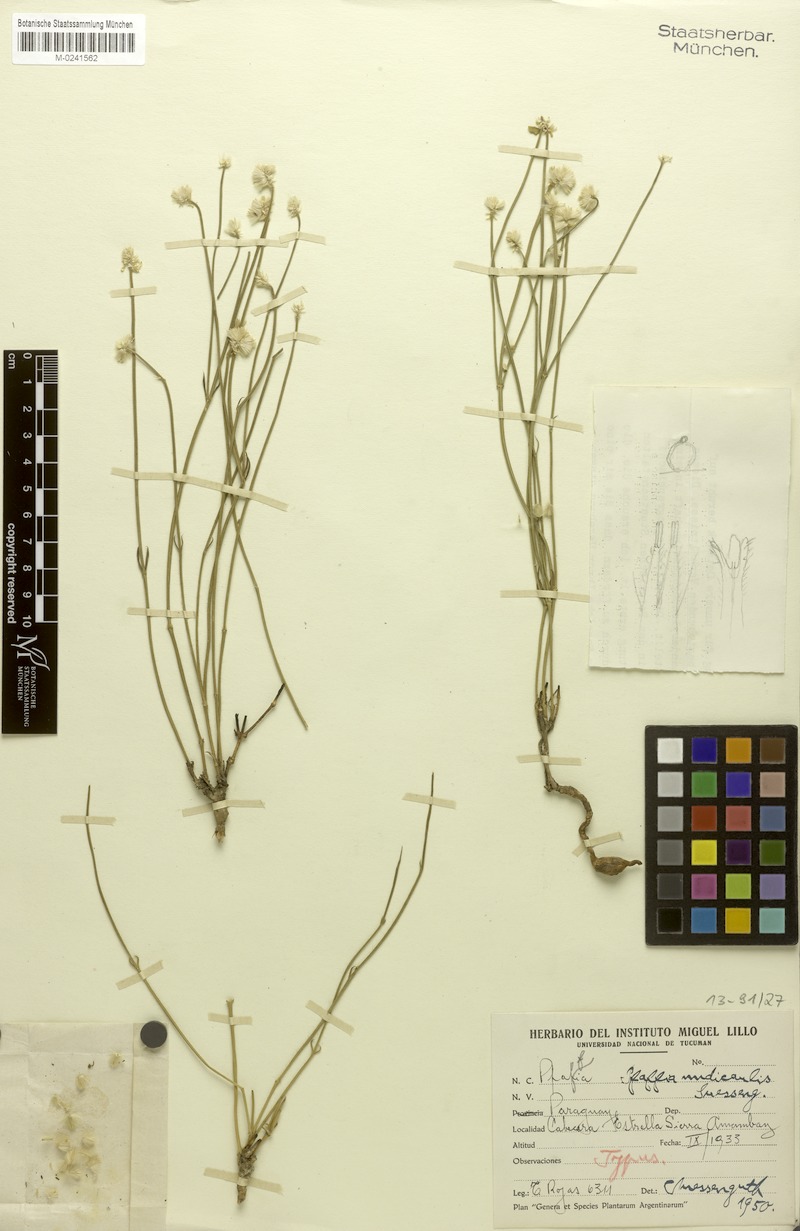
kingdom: Plantae
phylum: Tracheophyta
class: Magnoliopsida
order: Caryophyllales
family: Amaranthaceae
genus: Pfaffia
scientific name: Pfaffia nudicaulis
